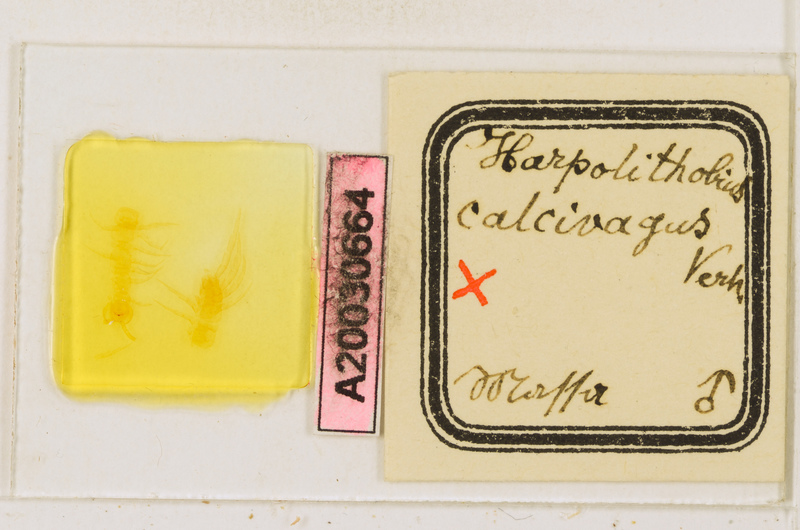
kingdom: Animalia
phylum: Arthropoda
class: Chilopoda
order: Lithobiomorpha
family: Lithobiidae
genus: Harpolithobius
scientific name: Harpolithobius anodus
